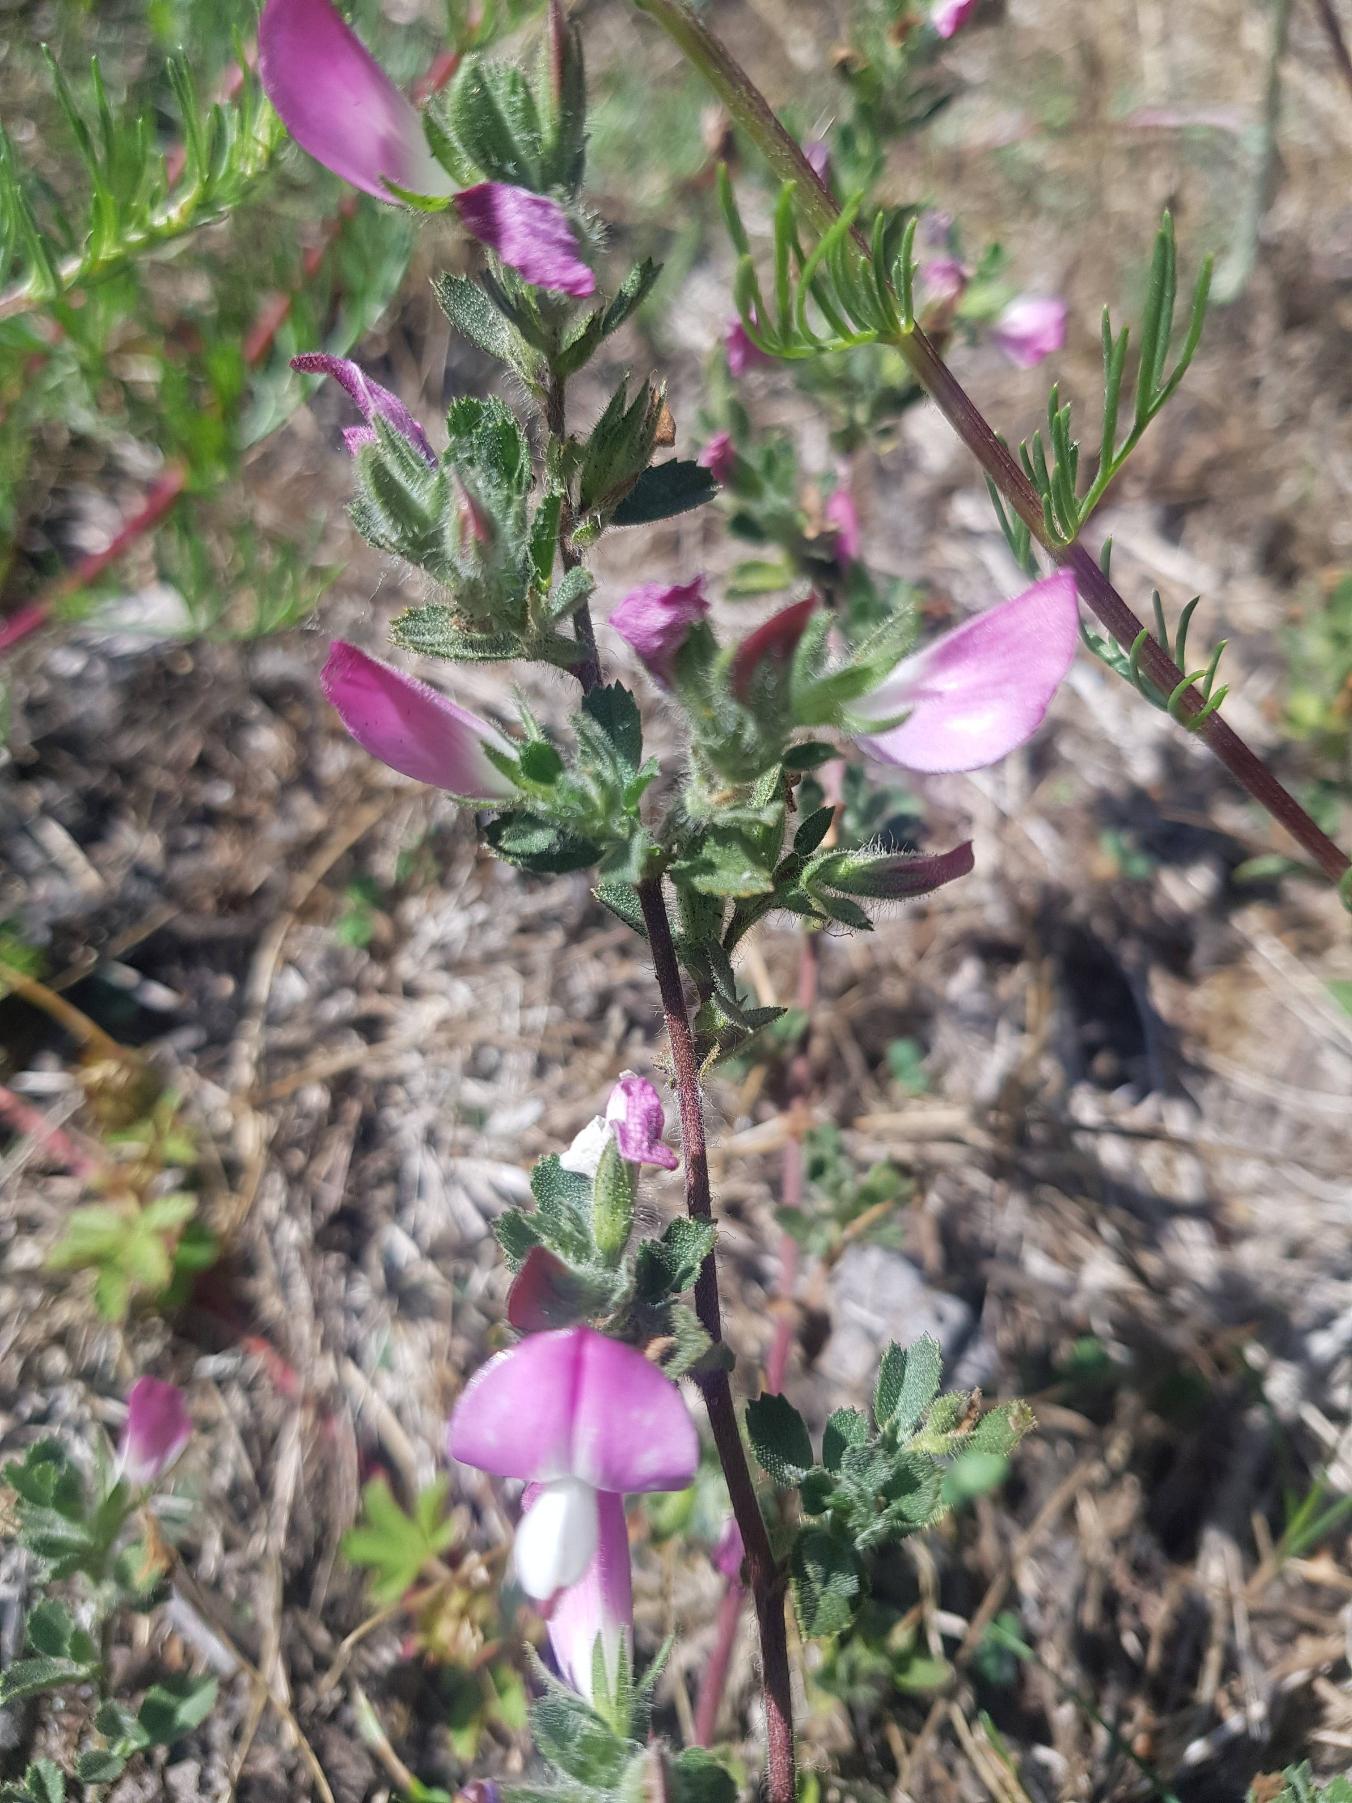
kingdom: Plantae
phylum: Tracheophyta
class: Magnoliopsida
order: Fabales
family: Fabaceae
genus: Ononis
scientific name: Ononis spinosa
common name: Mark-krageklo
